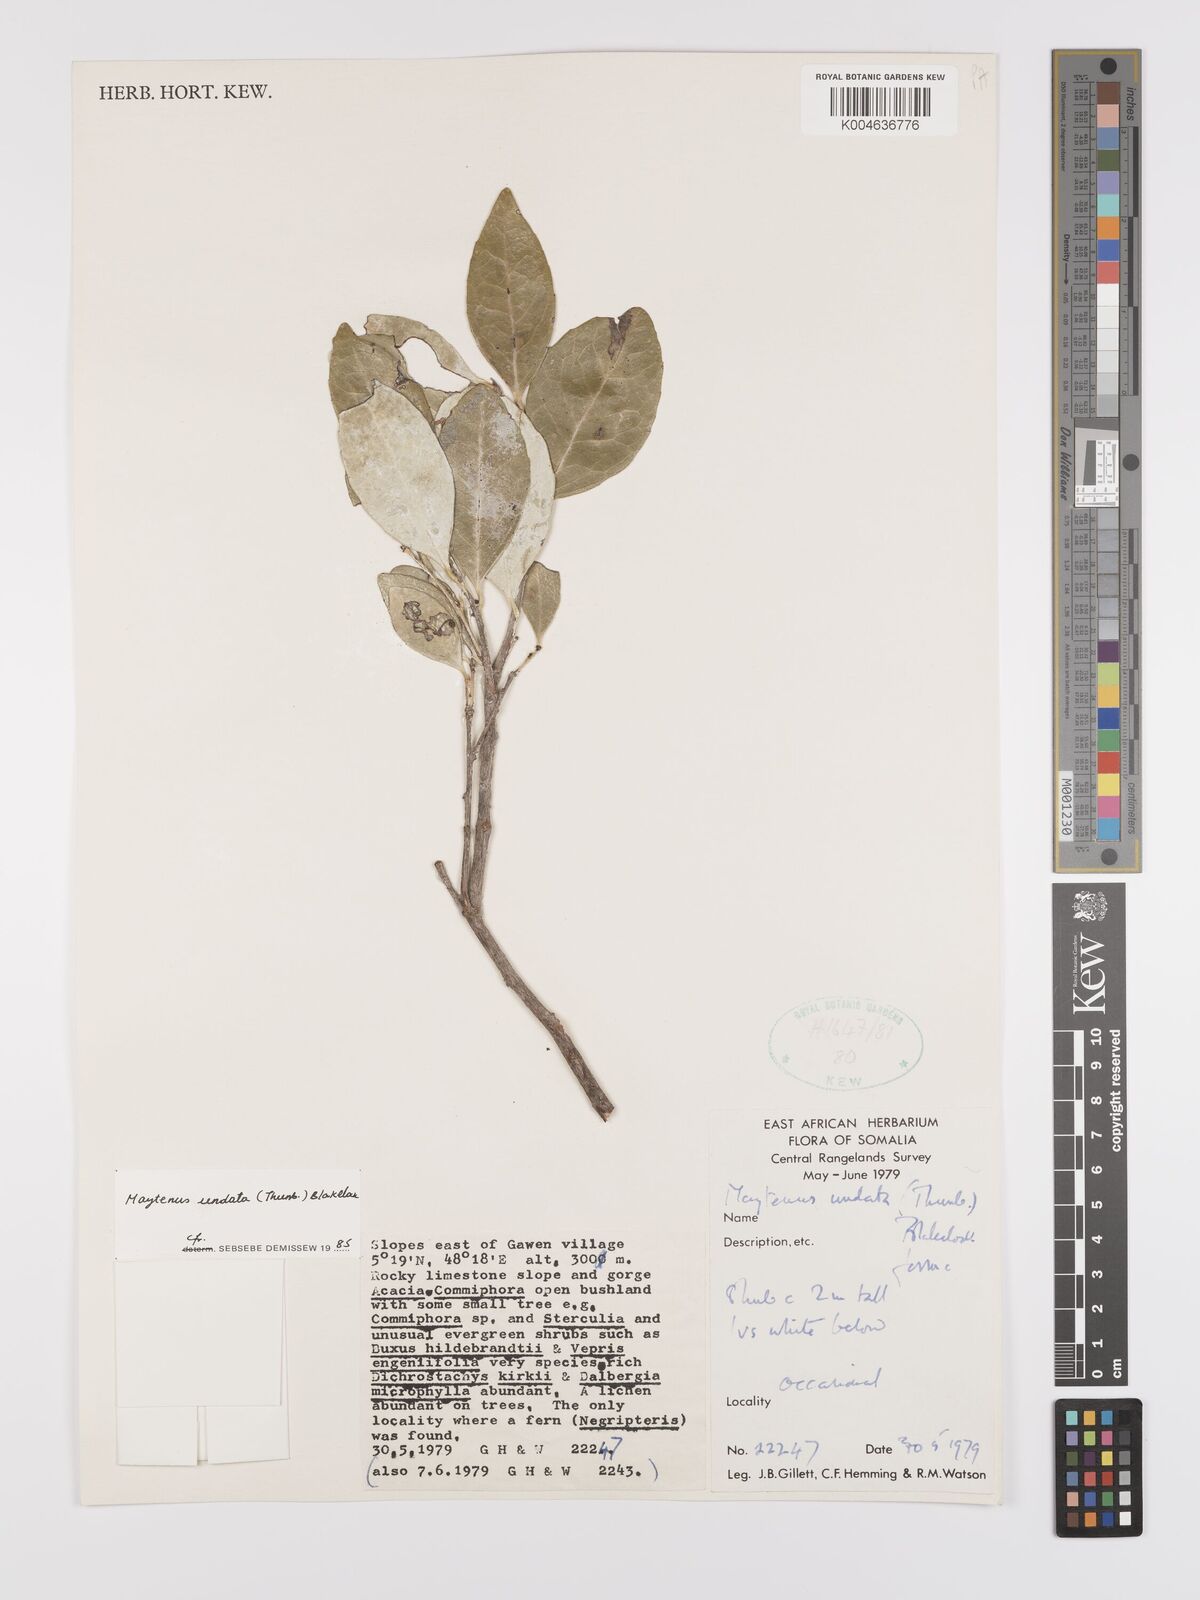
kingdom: Plantae
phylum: Tracheophyta
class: Magnoliopsida
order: Celastrales
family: Celastraceae
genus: Gymnosporia
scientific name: Gymnosporia undata
